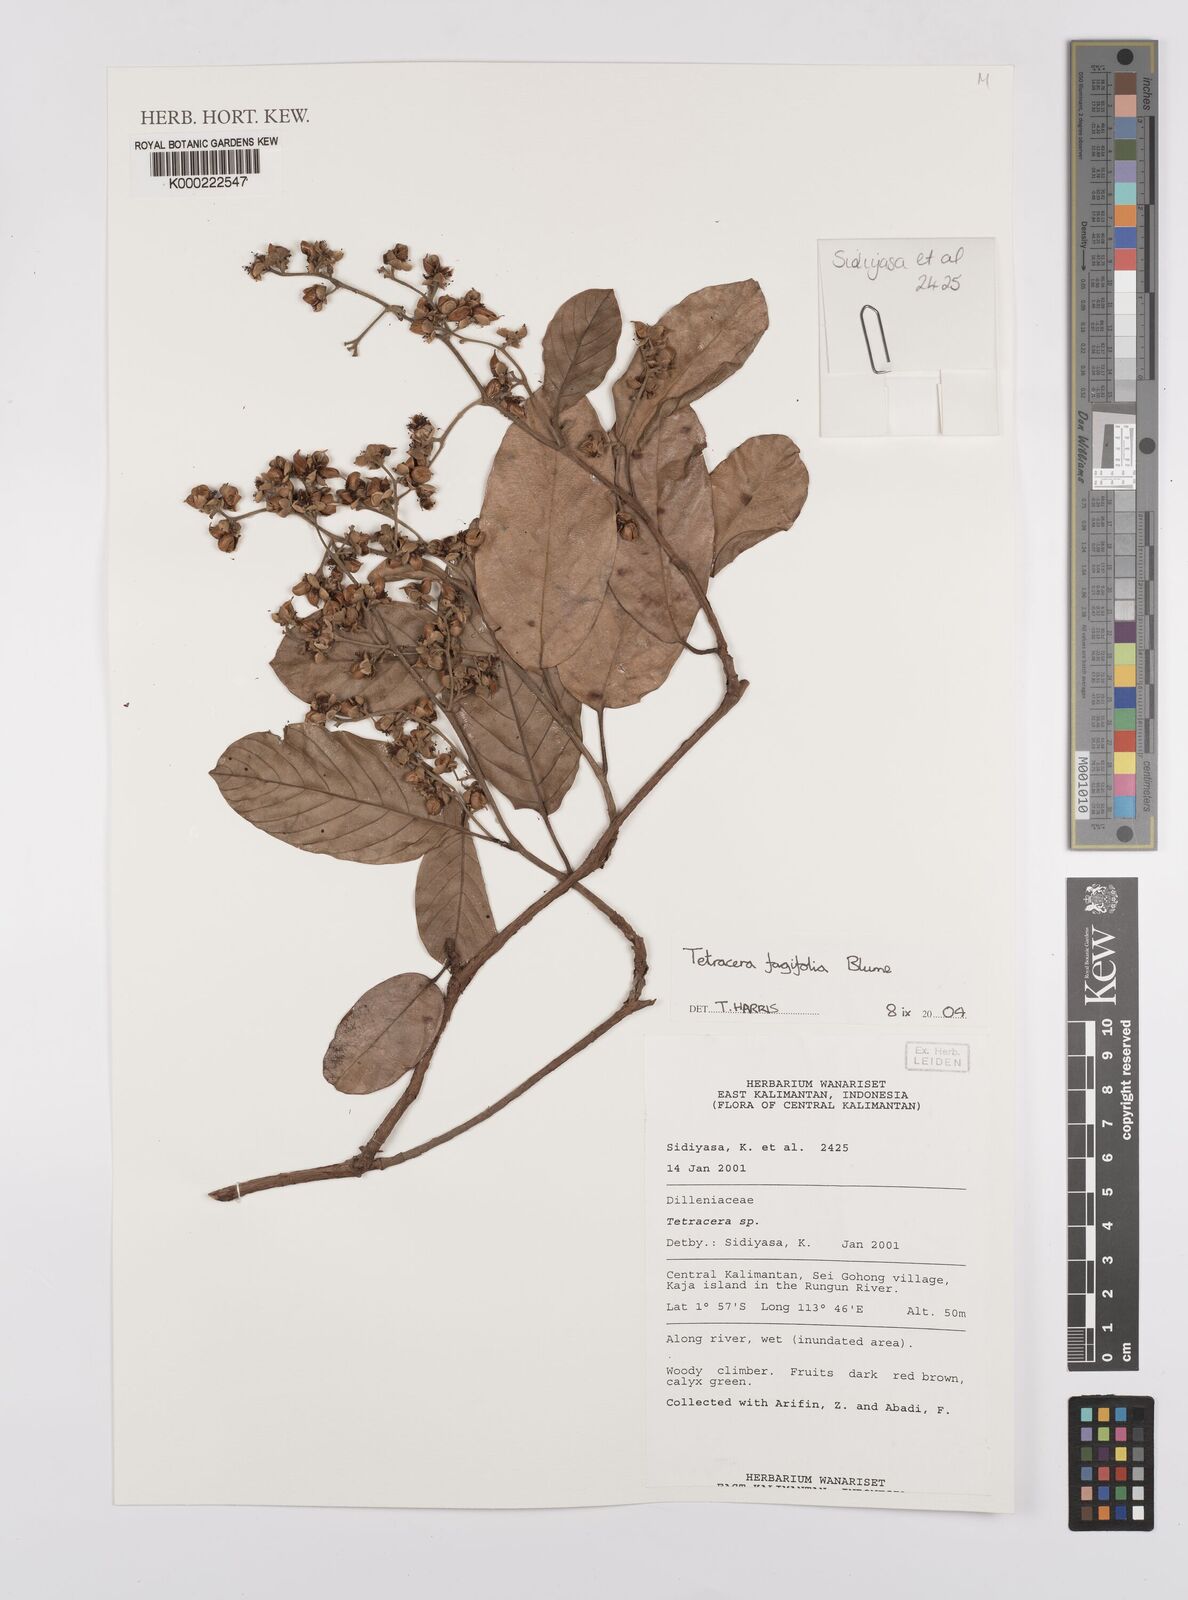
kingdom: Plantae
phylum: Tracheophyta
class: Magnoliopsida
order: Dilleniales
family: Dilleniaceae
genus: Tetracera
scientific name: Tetracera fagifolia
